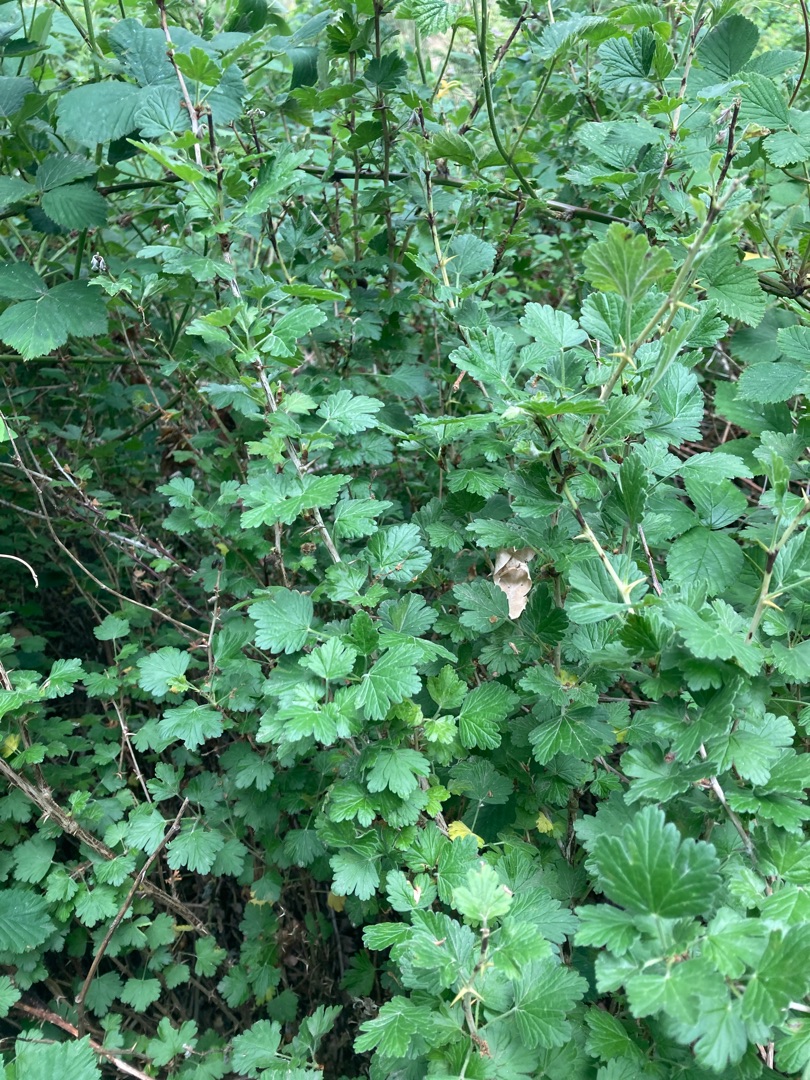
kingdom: Plantae
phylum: Tracheophyta
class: Magnoliopsida
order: Saxifragales
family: Grossulariaceae
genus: Ribes
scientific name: Ribes uva-crispa
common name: Stikkelsbær
